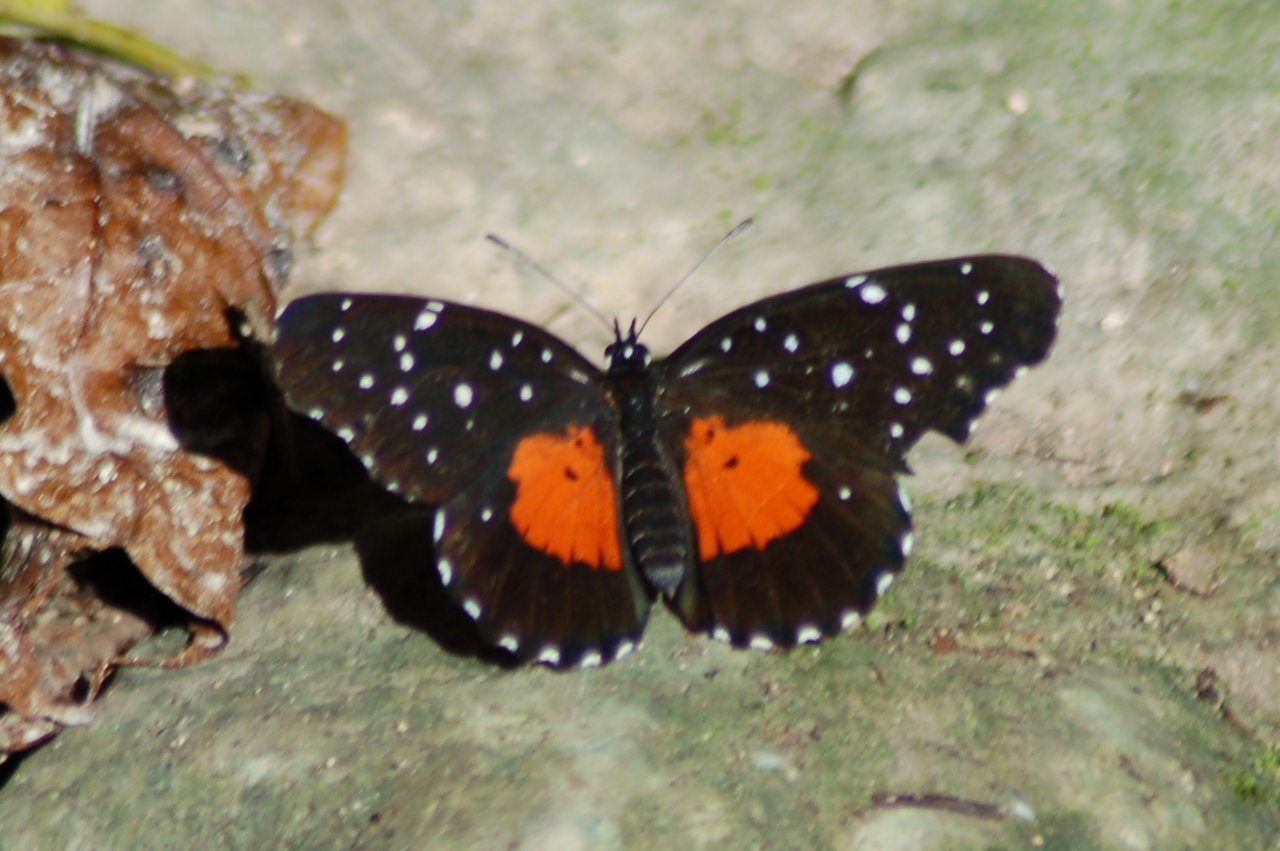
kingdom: Animalia
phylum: Arthropoda
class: Insecta
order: Lepidoptera
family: Nymphalidae
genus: Chlosyne
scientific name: Chlosyne janais
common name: Crimson Patch
